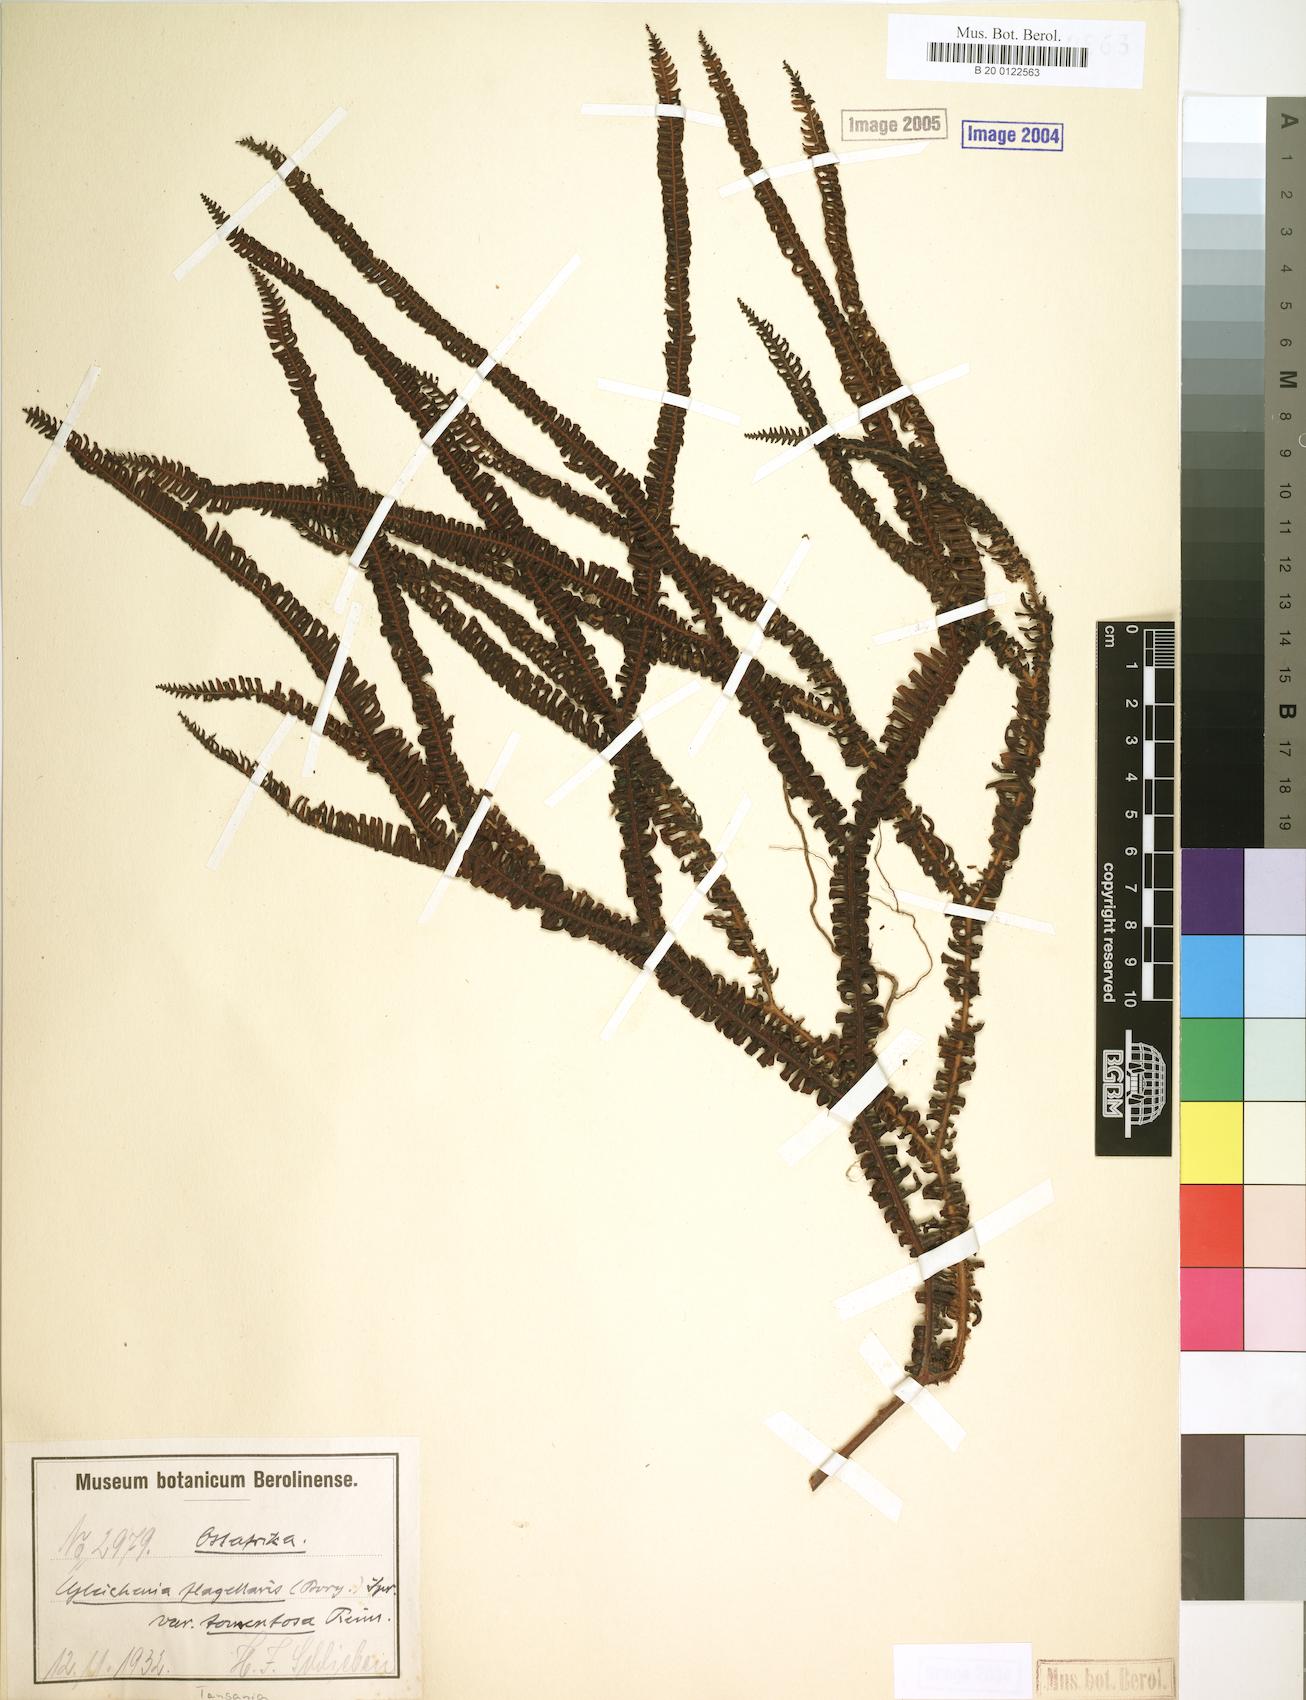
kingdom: Plantae
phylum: Tracheophyta
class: Polypodiopsida
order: Gleicheniales
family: Gleicheniaceae
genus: Sticherus
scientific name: Sticherus flagellaris
